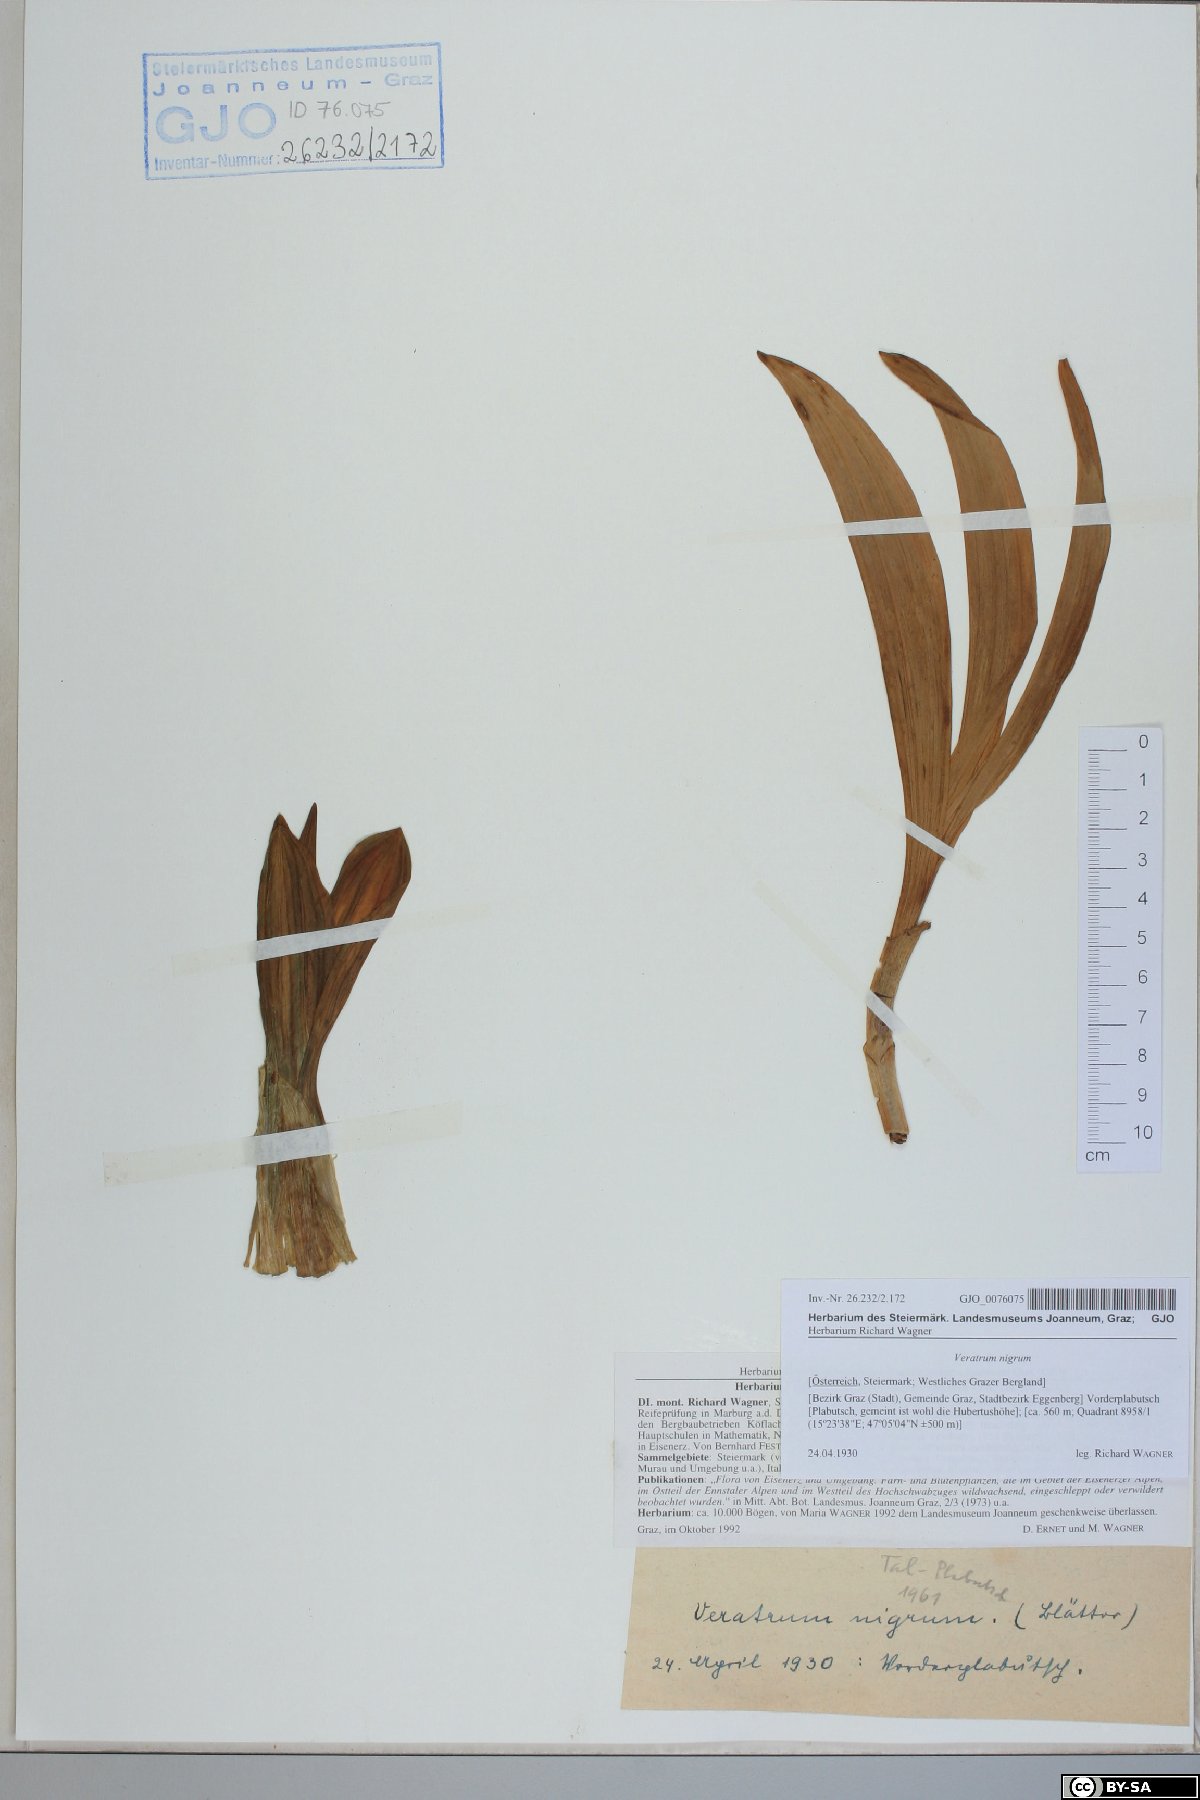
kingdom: Plantae
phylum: Tracheophyta
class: Liliopsida
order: Liliales
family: Melanthiaceae
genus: Veratrum
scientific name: Veratrum nigrum
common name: Black veratrum
